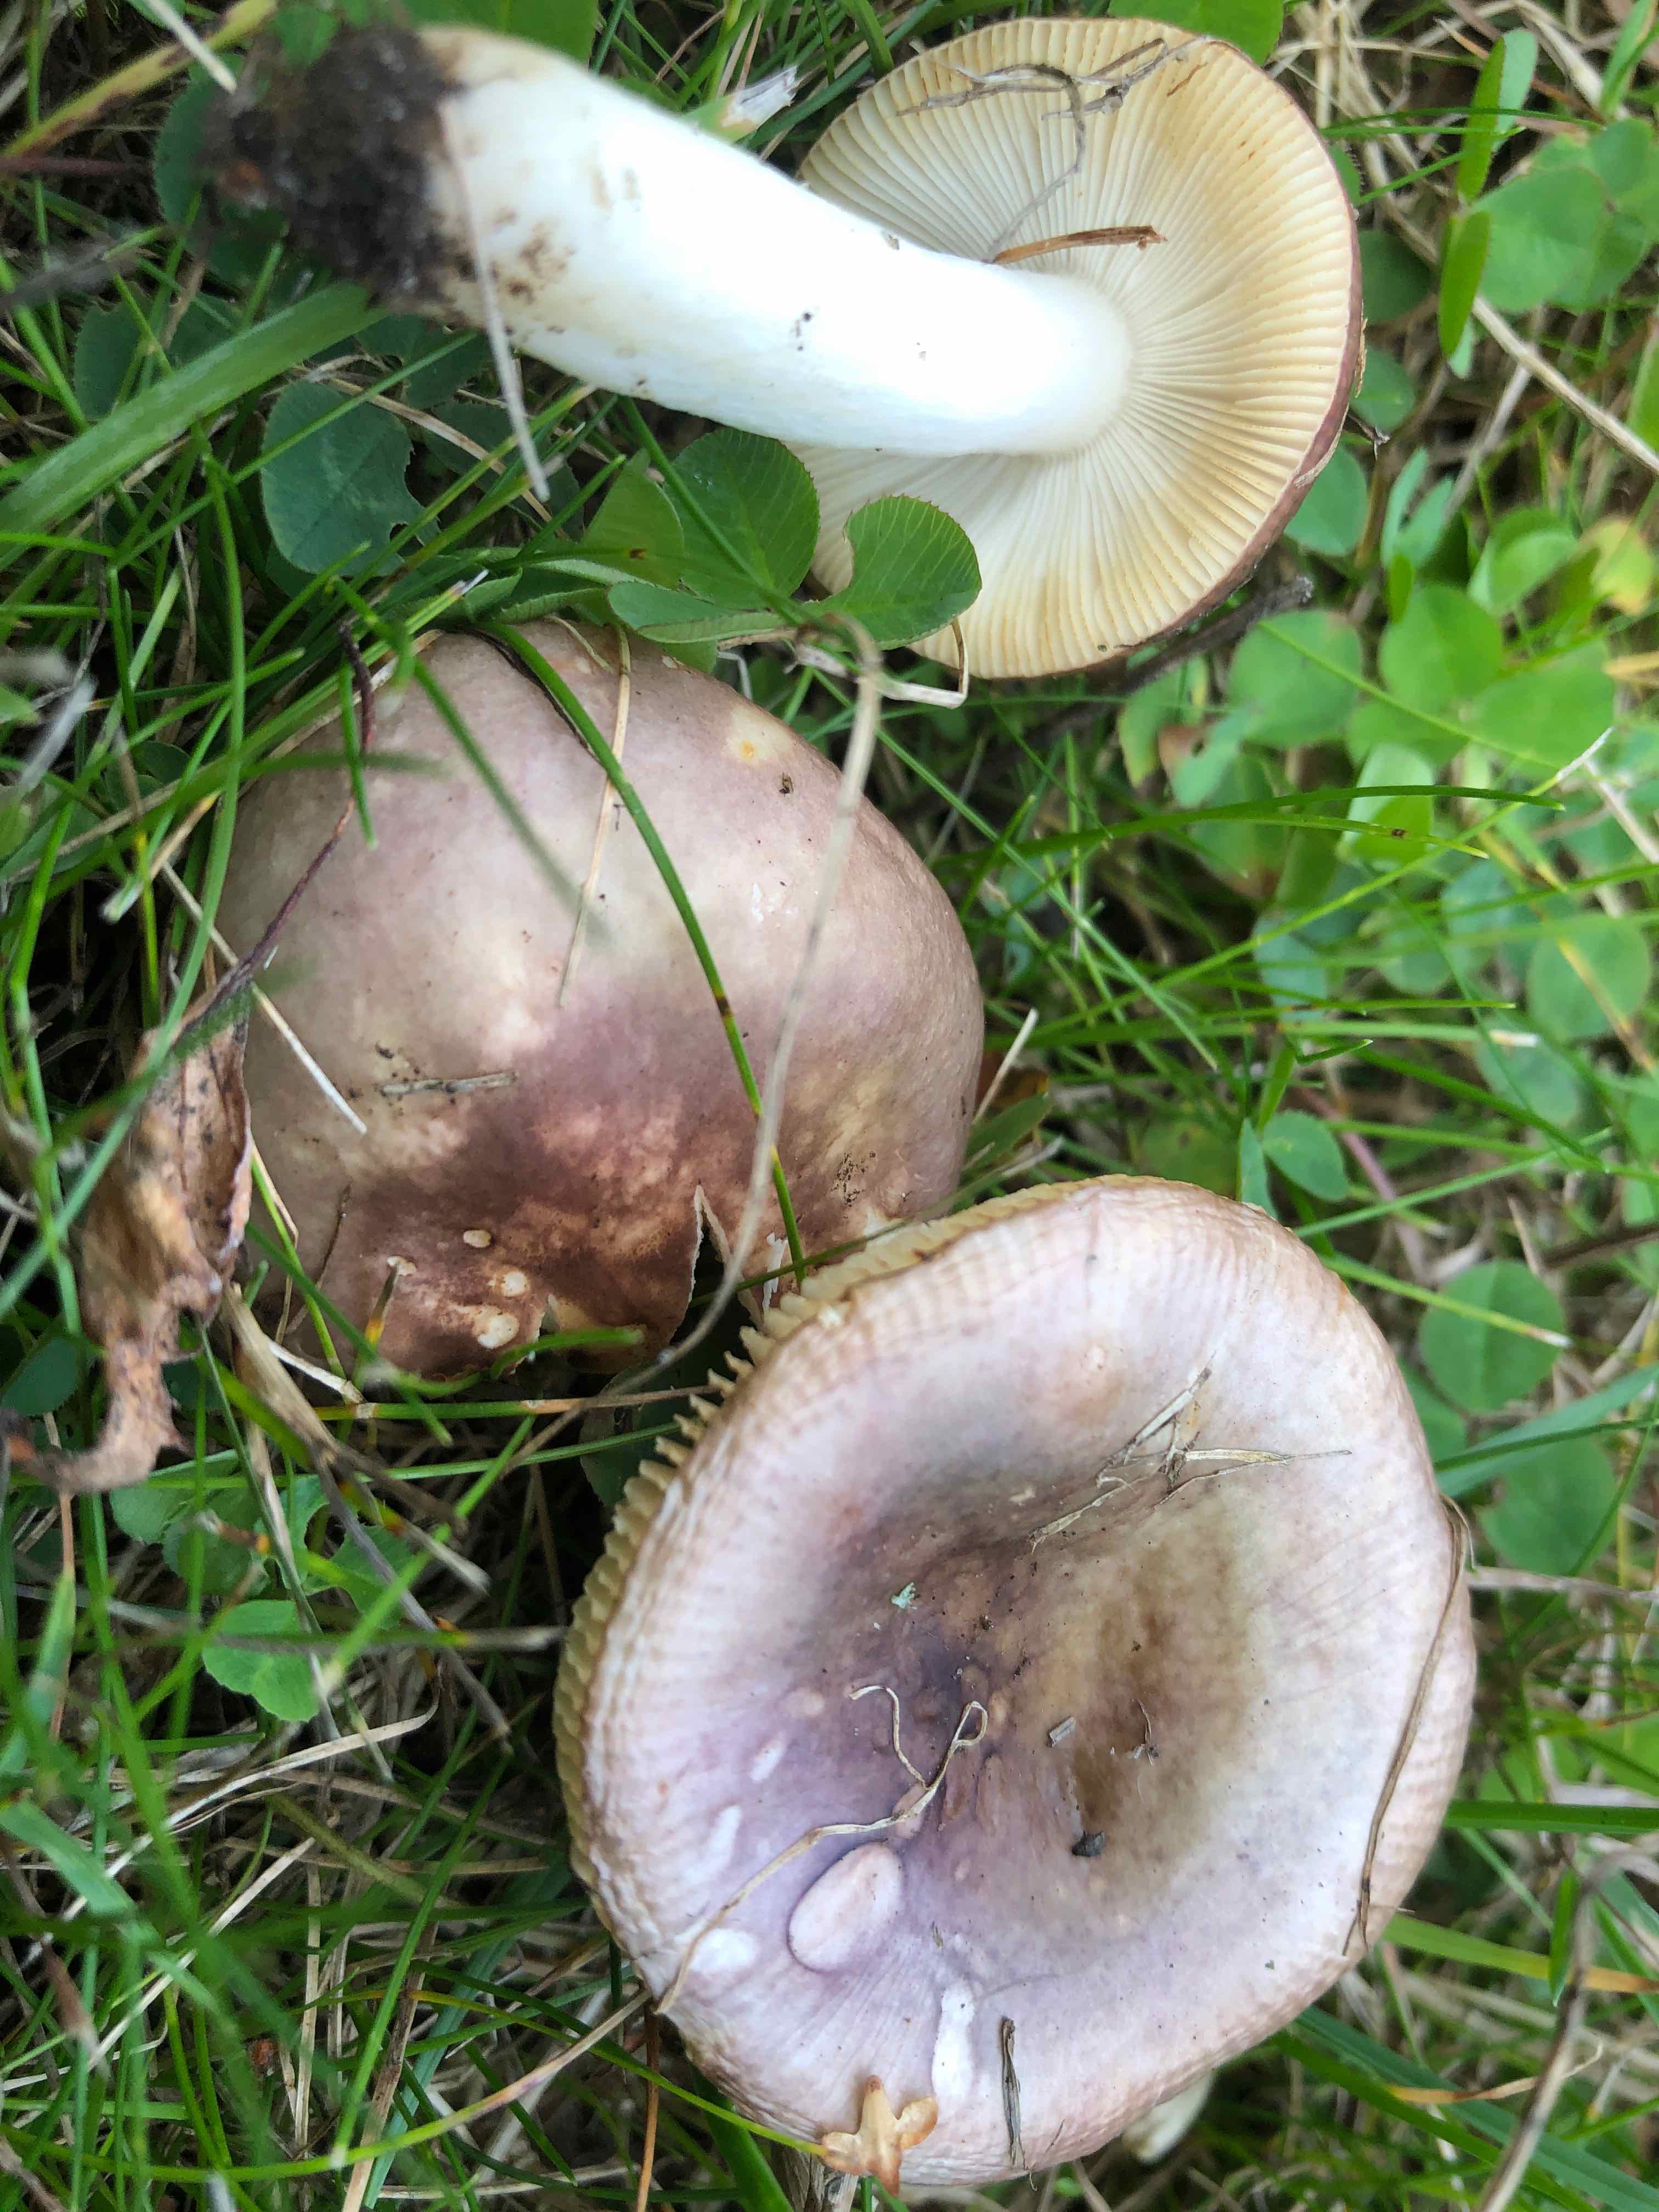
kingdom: Fungi
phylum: Basidiomycota
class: Agaricomycetes
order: Russulales
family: Russulaceae
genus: Russula
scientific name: Russula versicolor
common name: foranderlig skørhat
